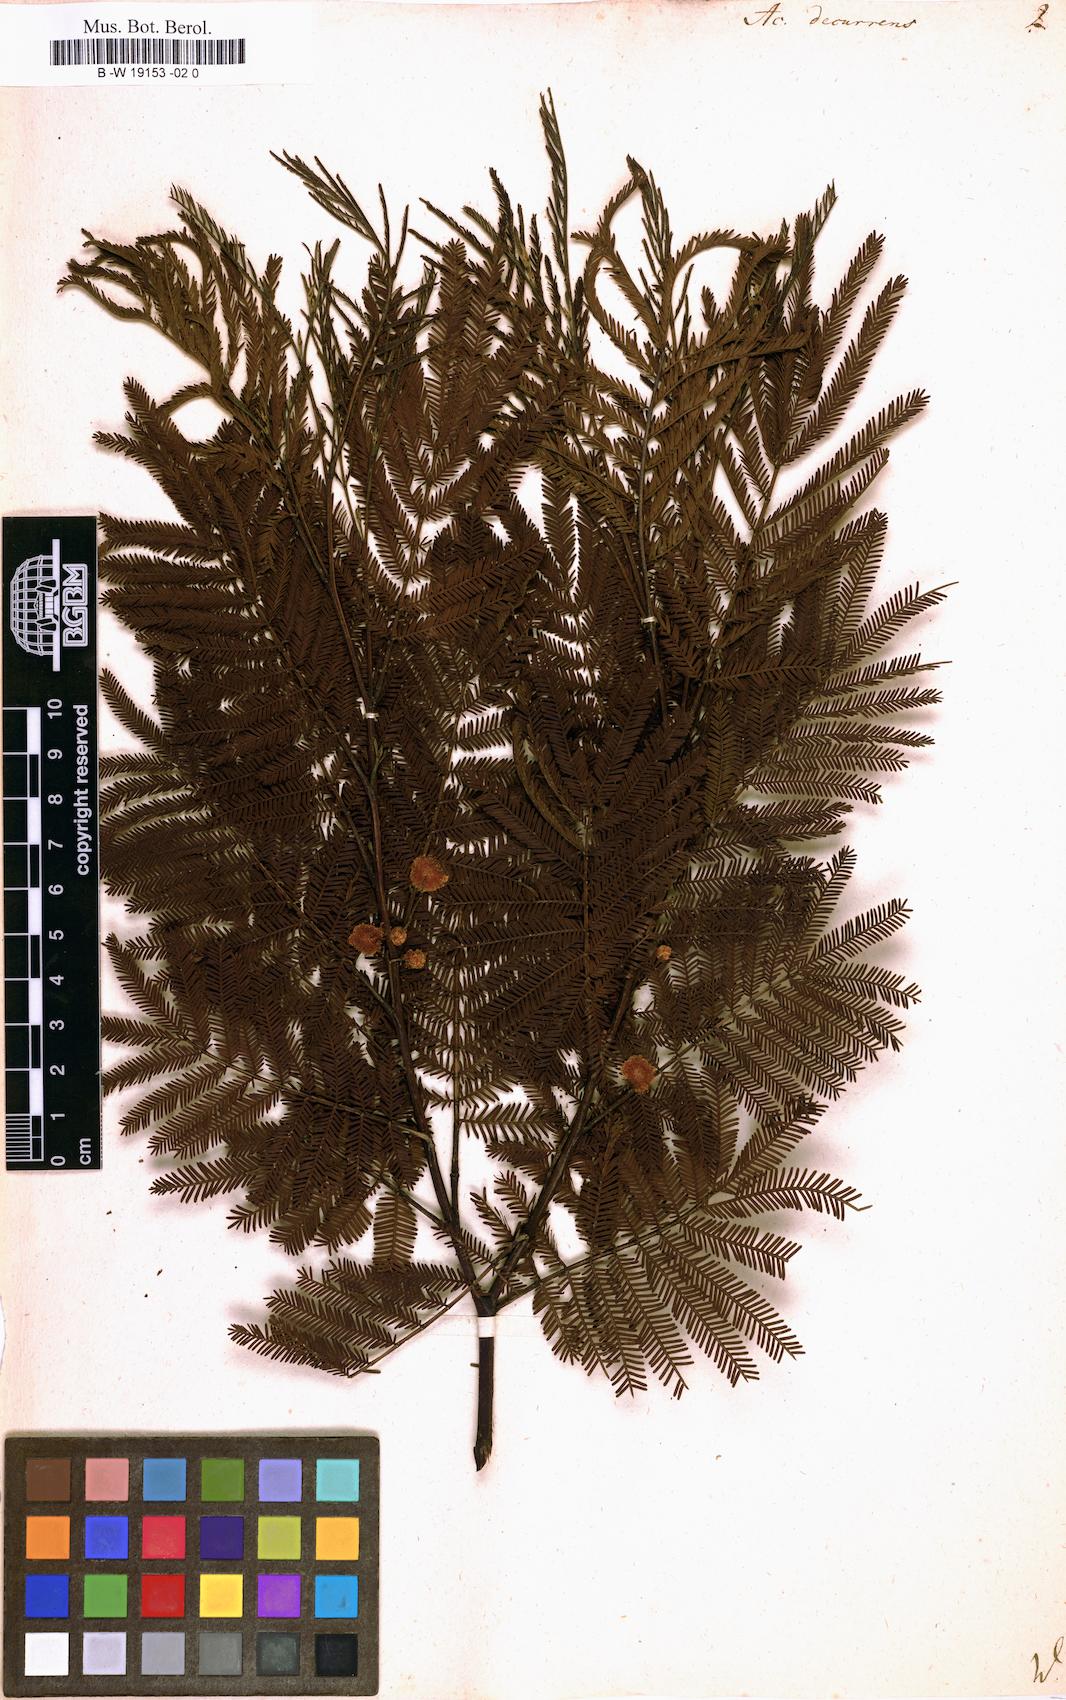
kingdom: Plantae
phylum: Tracheophyta
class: Magnoliopsida
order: Fabales
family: Fabaceae
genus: Acacia
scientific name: Acacia decurrens
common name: Green wattle
